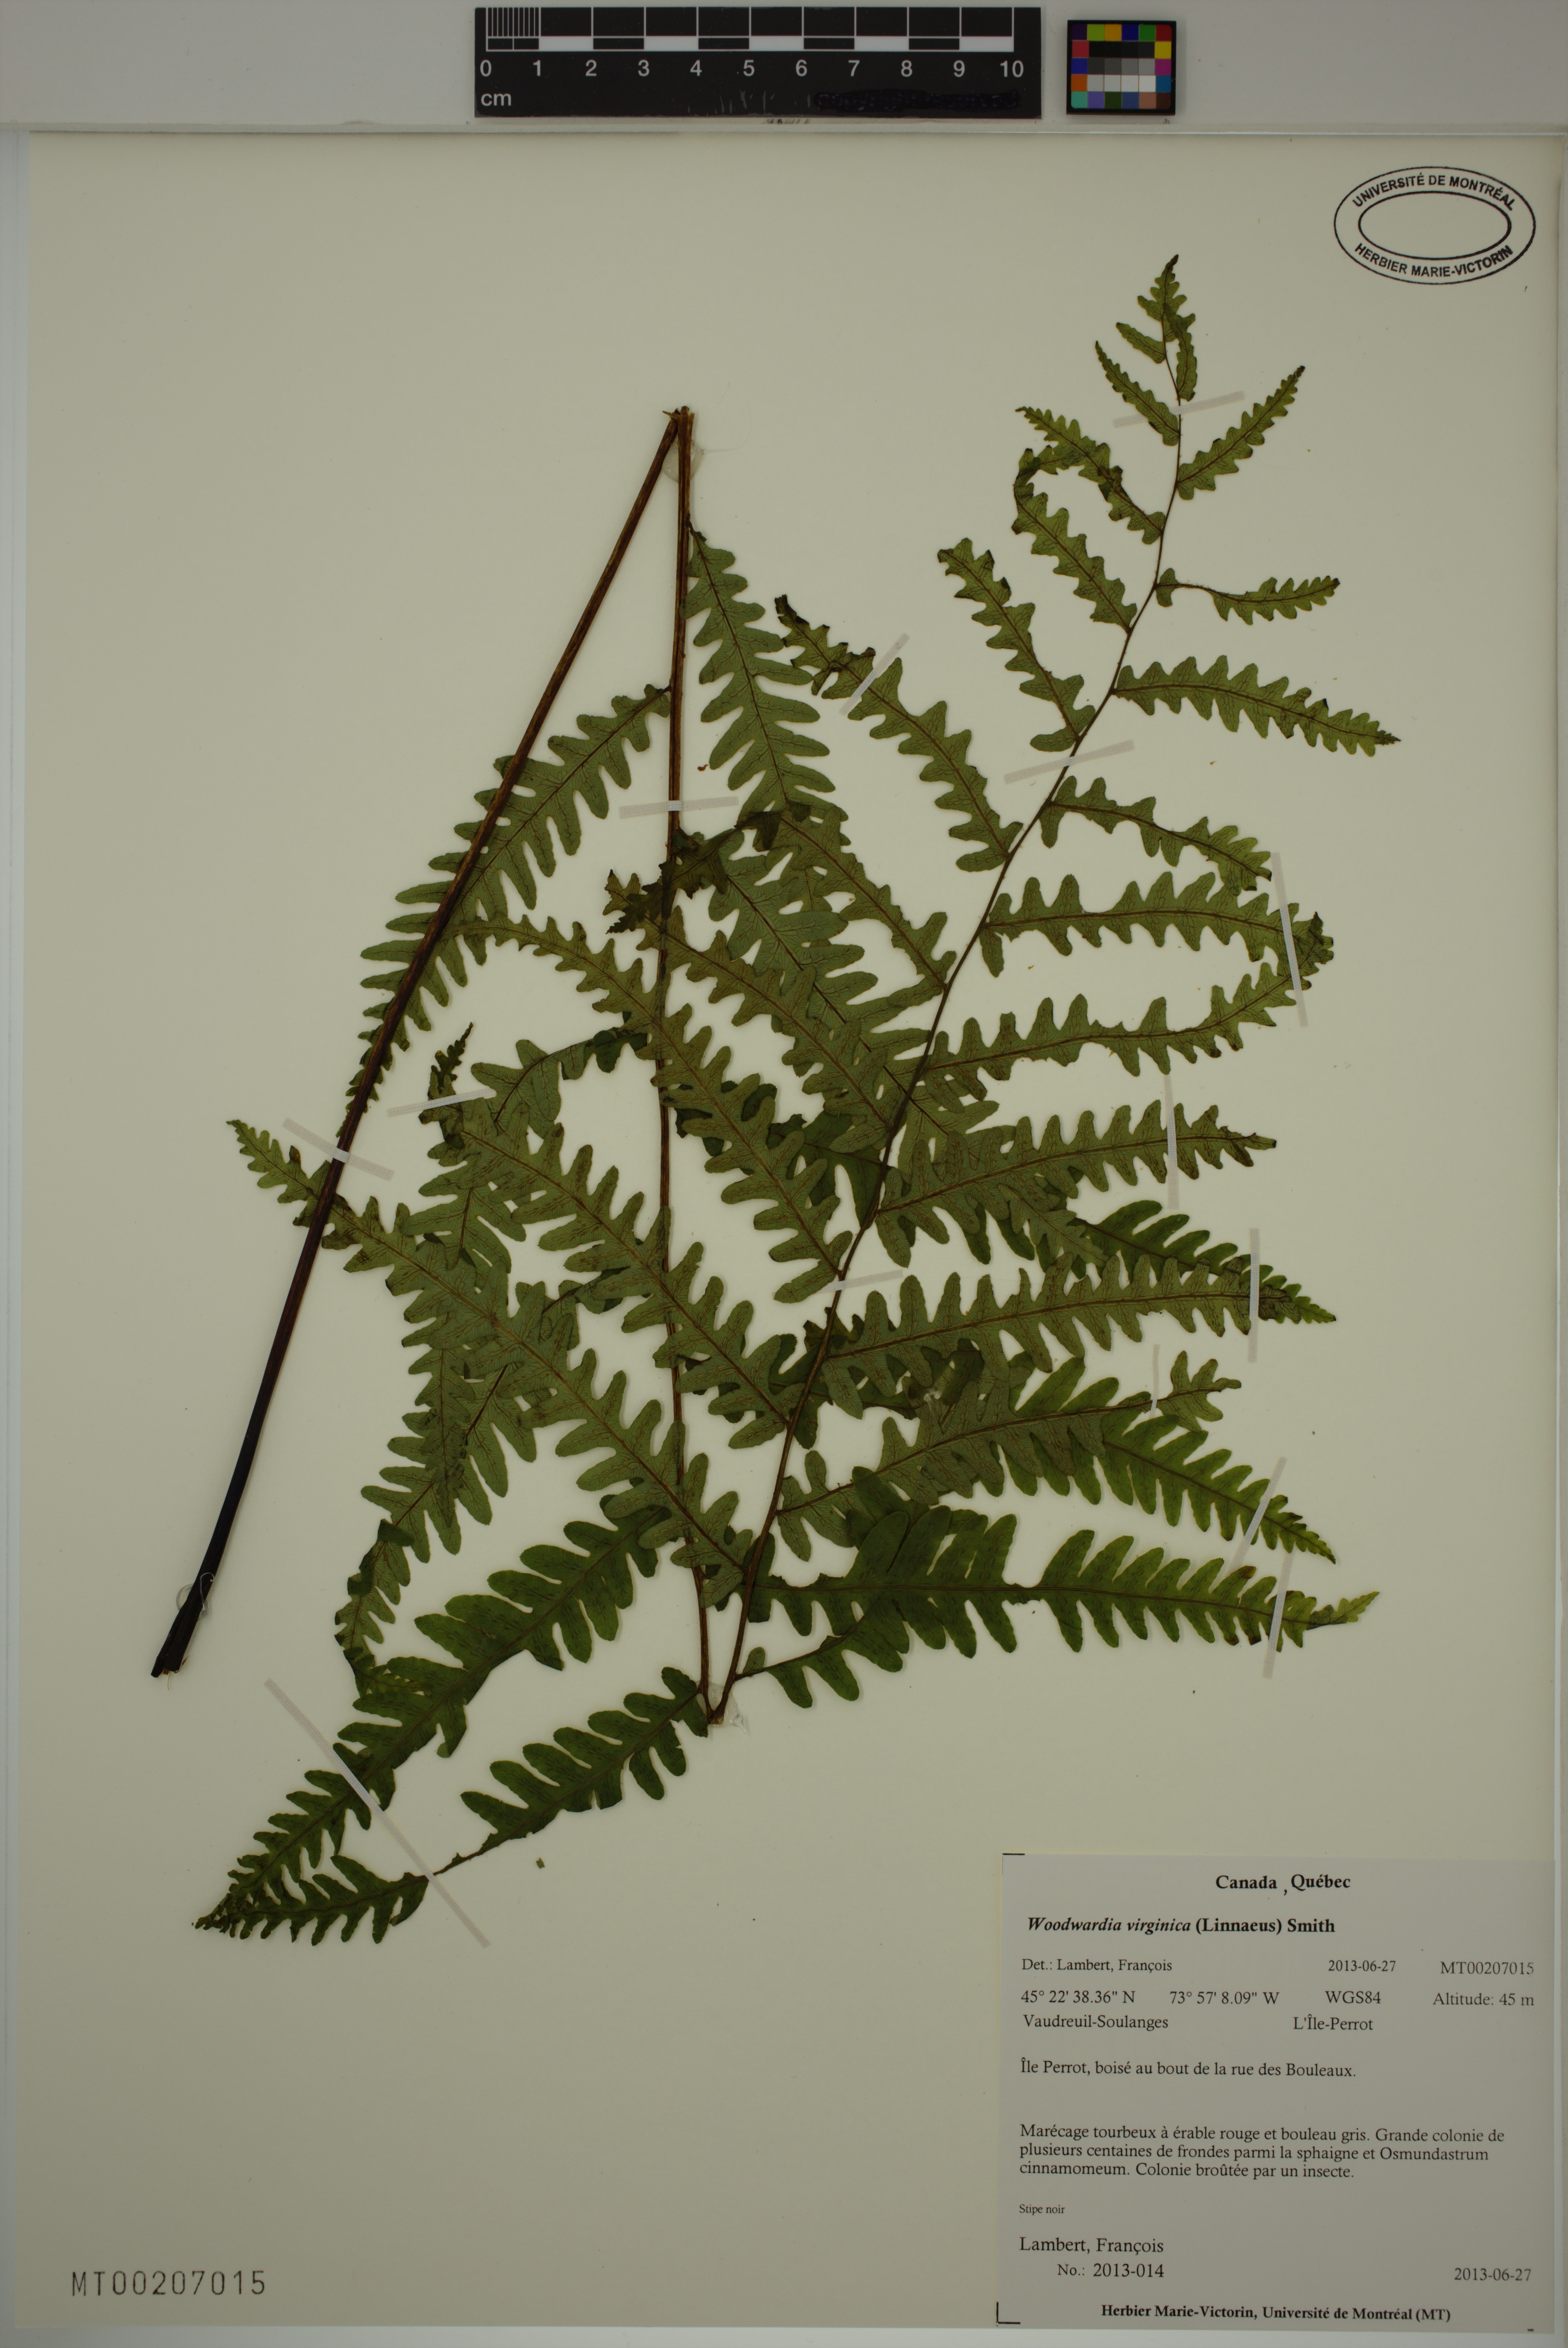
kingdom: Plantae
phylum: Tracheophyta
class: Polypodiopsida
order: Polypodiales
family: Blechnaceae
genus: Anchistea
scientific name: Anchistea virginica
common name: Virginia chain fern
